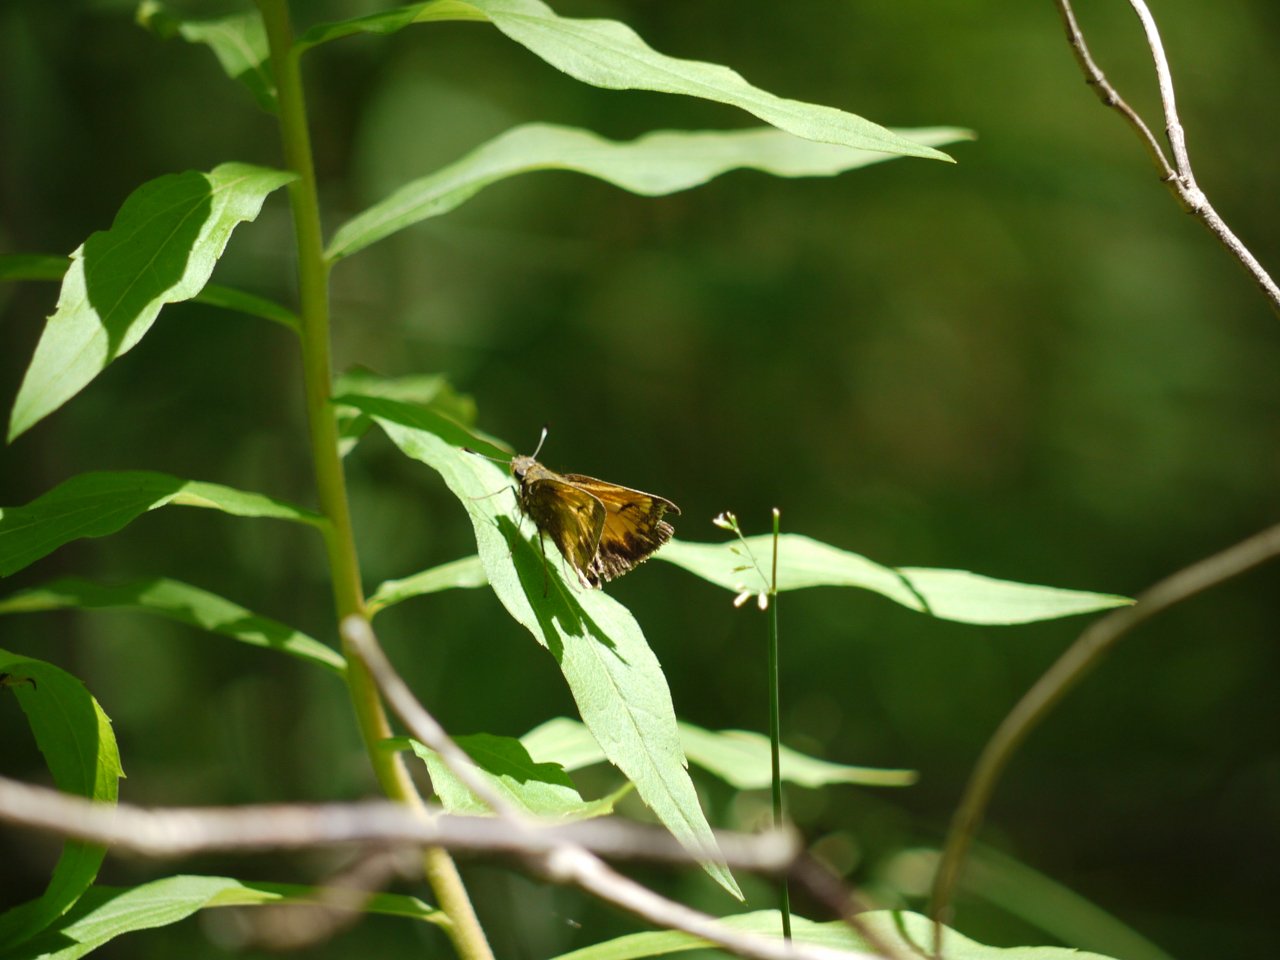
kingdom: Animalia
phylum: Arthropoda
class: Insecta
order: Lepidoptera
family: Hesperiidae
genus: Lon
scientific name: Lon hobomok
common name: Hobomok Skipper
